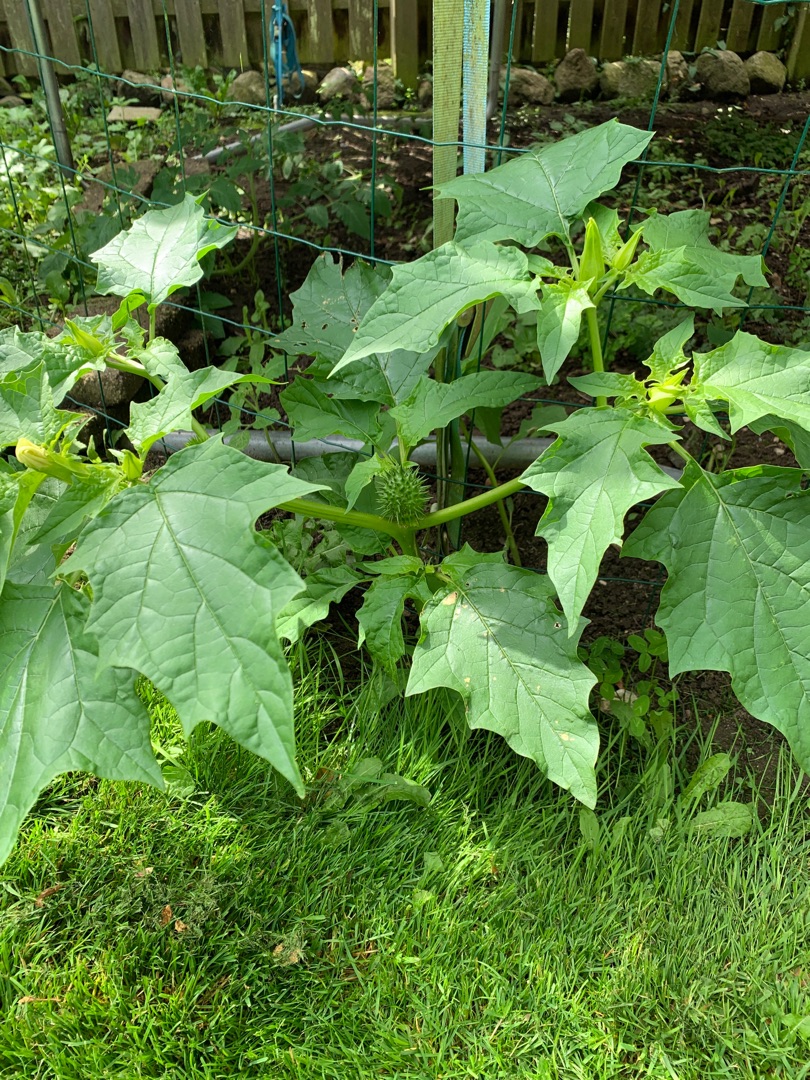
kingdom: Plantae
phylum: Tracheophyta
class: Magnoliopsida
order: Solanales
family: Solanaceae
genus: Datura
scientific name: Datura stramonium
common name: Pigæble
